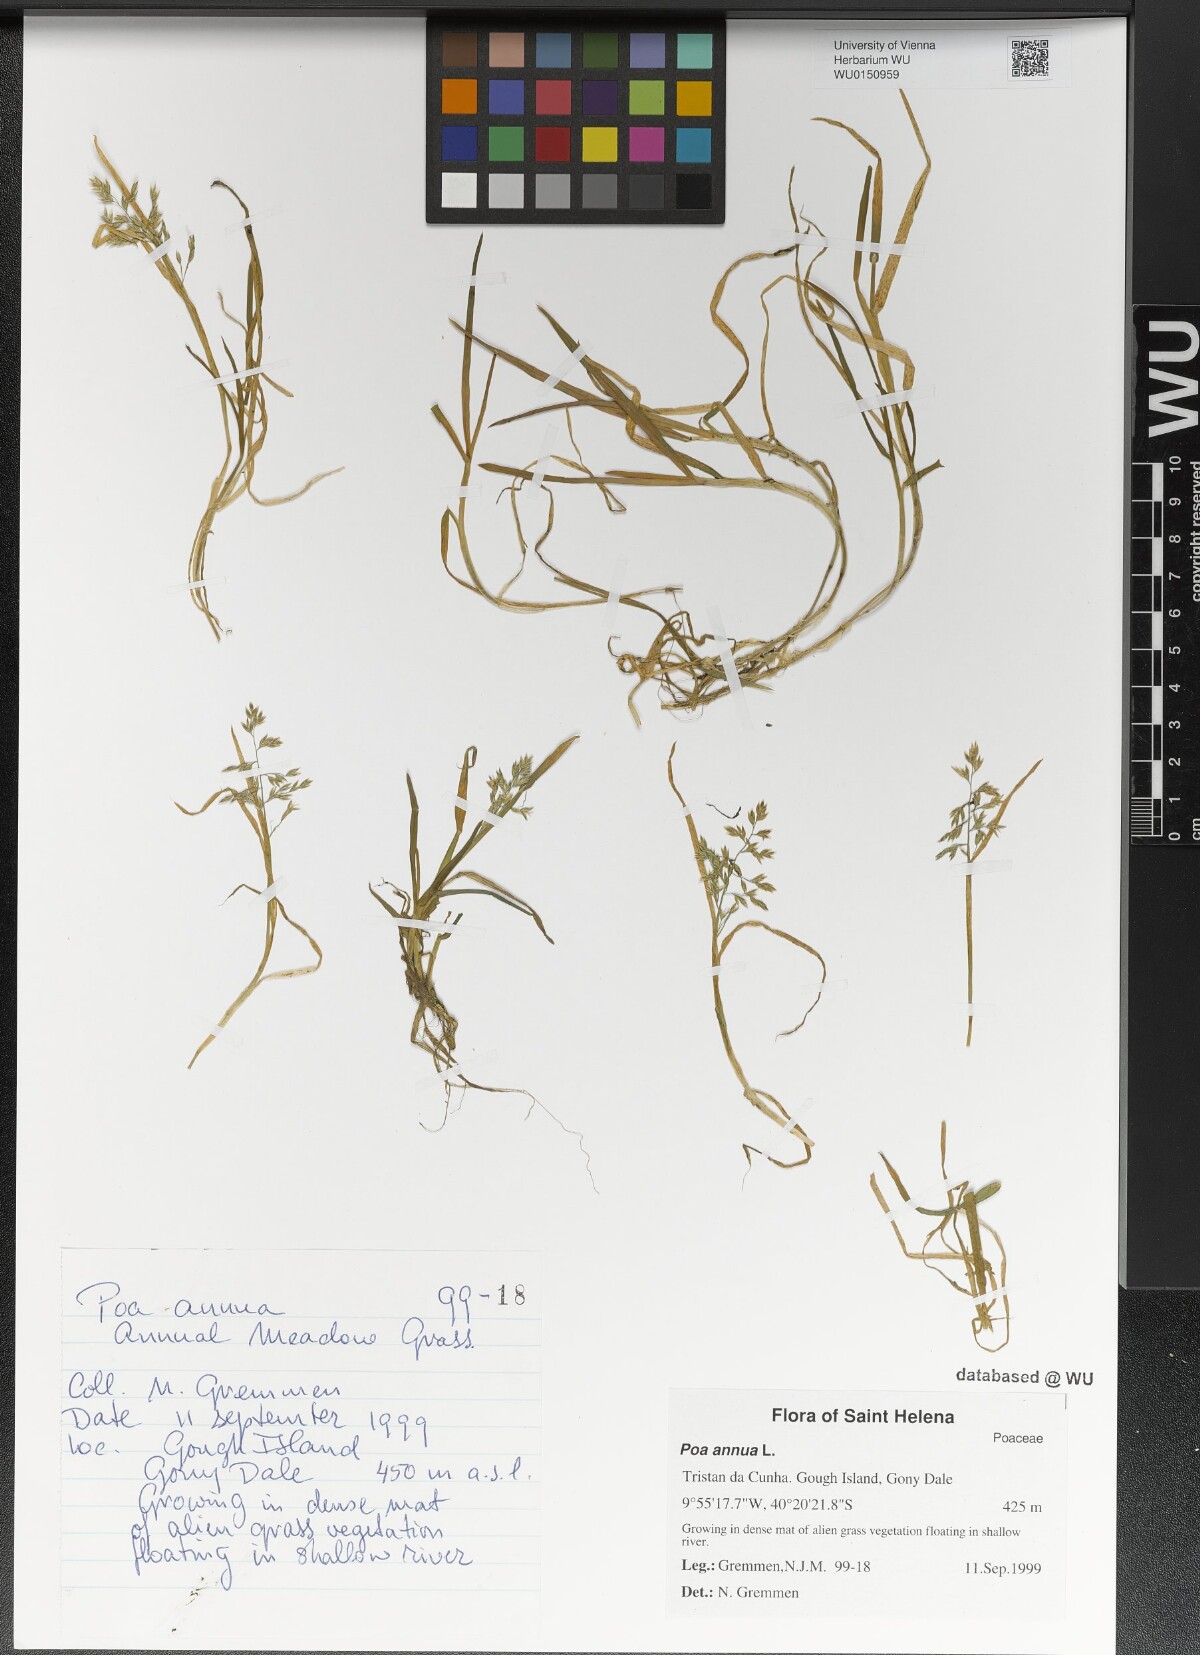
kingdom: Plantae
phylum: Tracheophyta
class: Liliopsida
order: Poales
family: Poaceae
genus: Poa
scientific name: Poa annua
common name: Annual bluegrass
